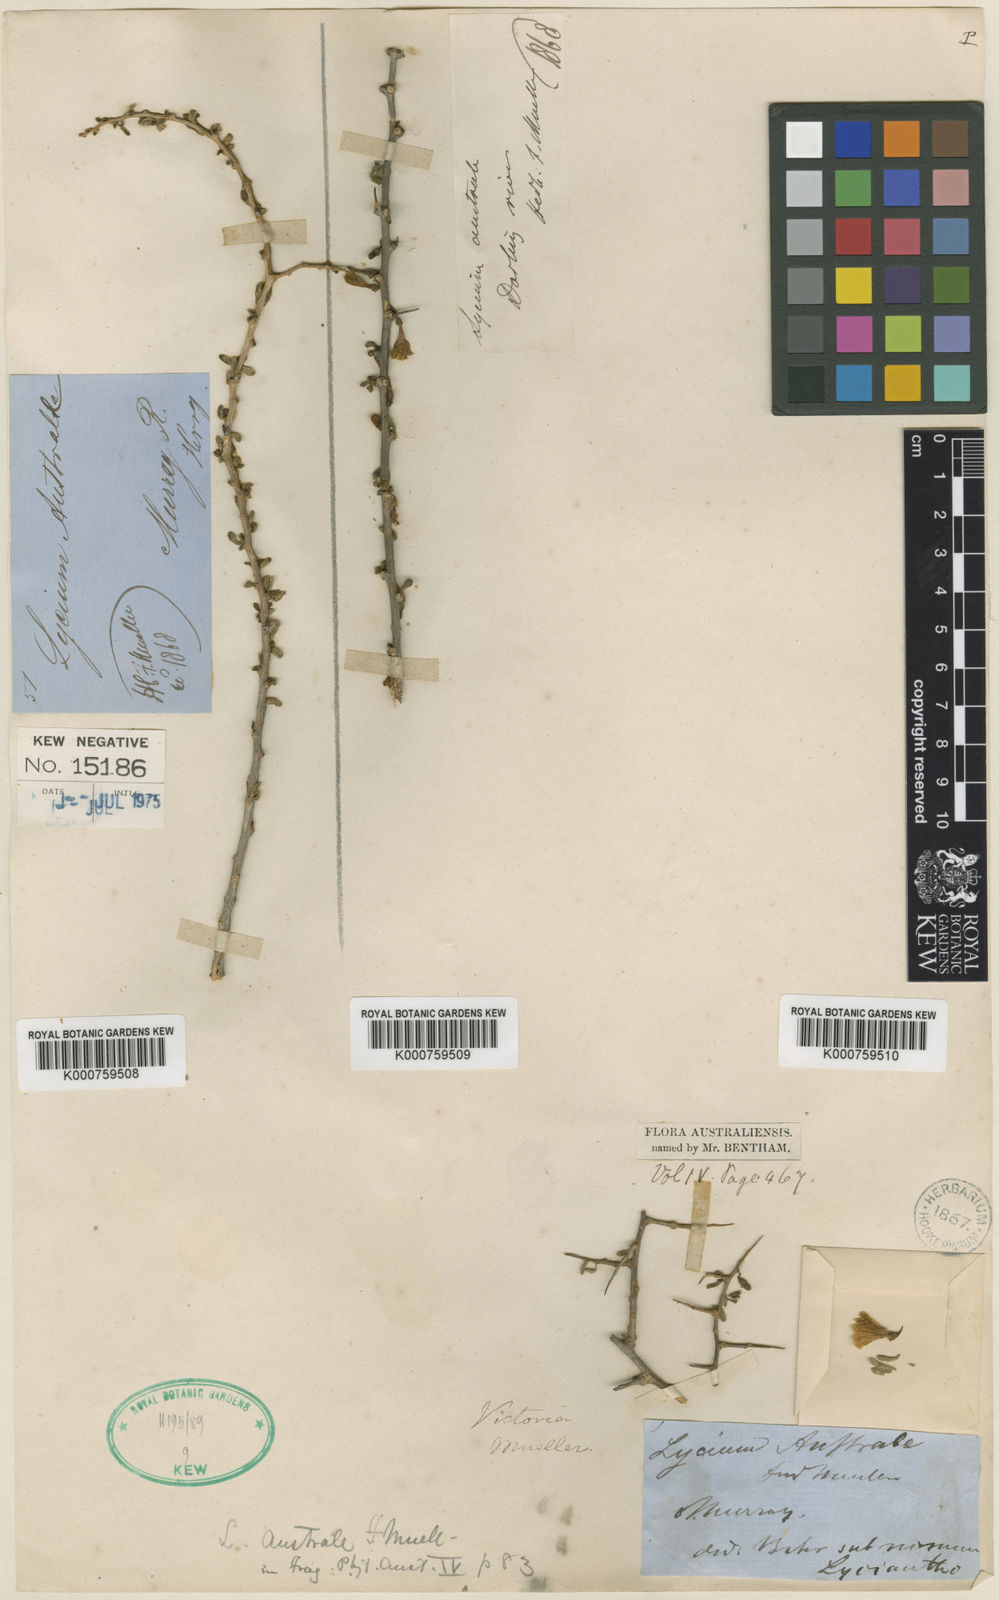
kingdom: Plantae
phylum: Tracheophyta
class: Magnoliopsida
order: Solanales
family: Solanaceae
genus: Lycium
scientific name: Lycium australe
